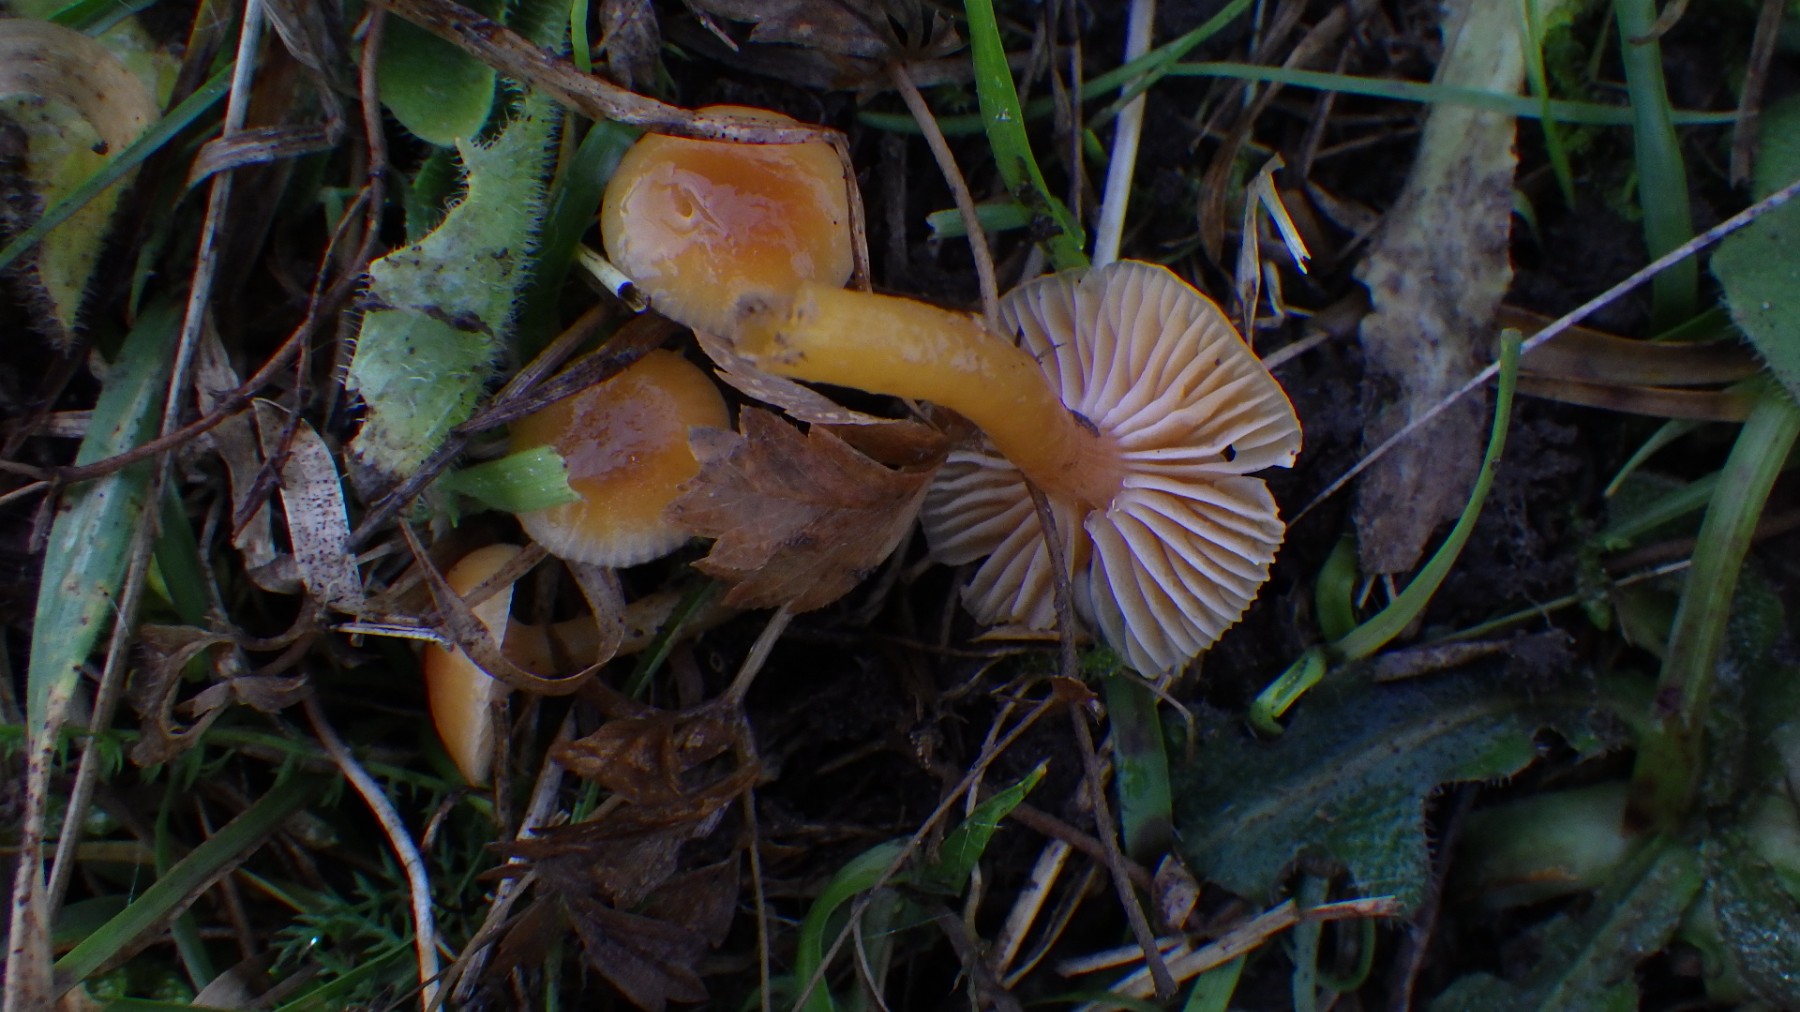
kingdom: Fungi
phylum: Basidiomycota
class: Agaricomycetes
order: Agaricales
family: Hygrophoraceae
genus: Gliophorus
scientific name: Gliophorus laetus
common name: brusk-vokshat
